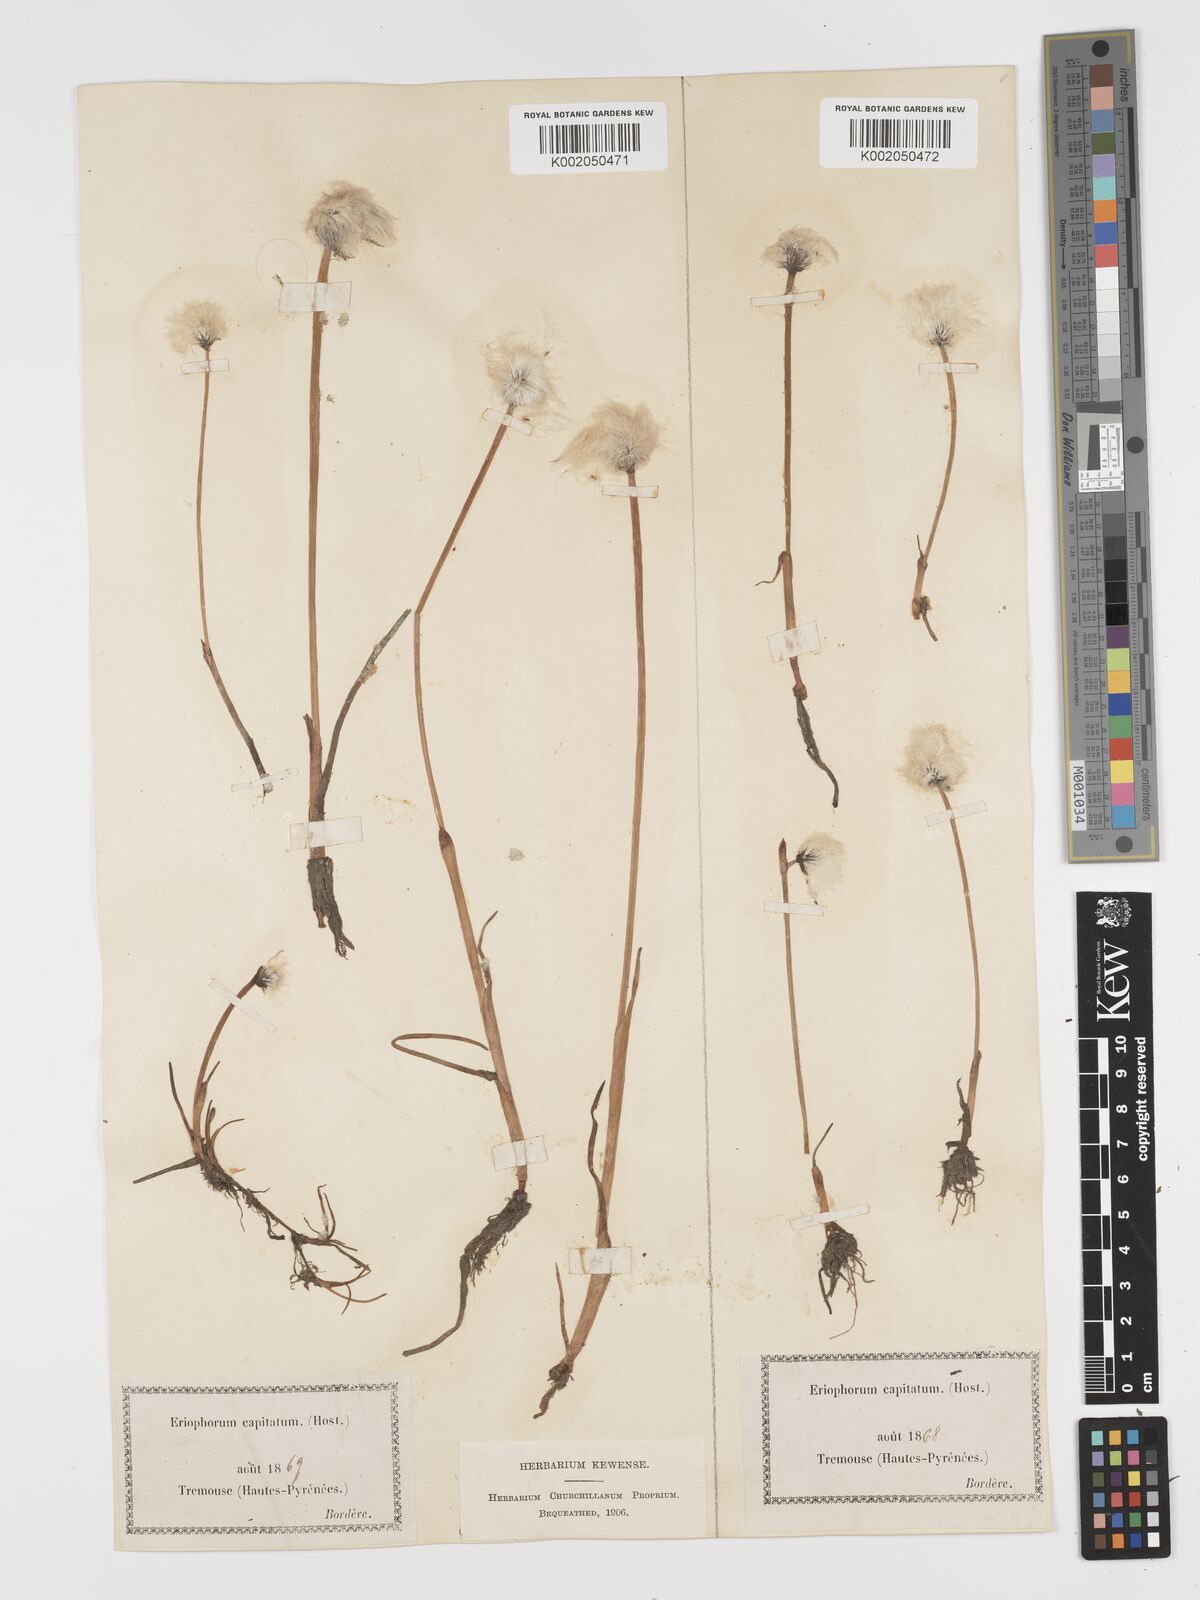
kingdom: Plantae
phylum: Tracheophyta
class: Liliopsida
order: Poales
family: Cyperaceae
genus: Eriophorum
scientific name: Eriophorum scheuchzeri
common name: Scheuchzer's cottongrass
